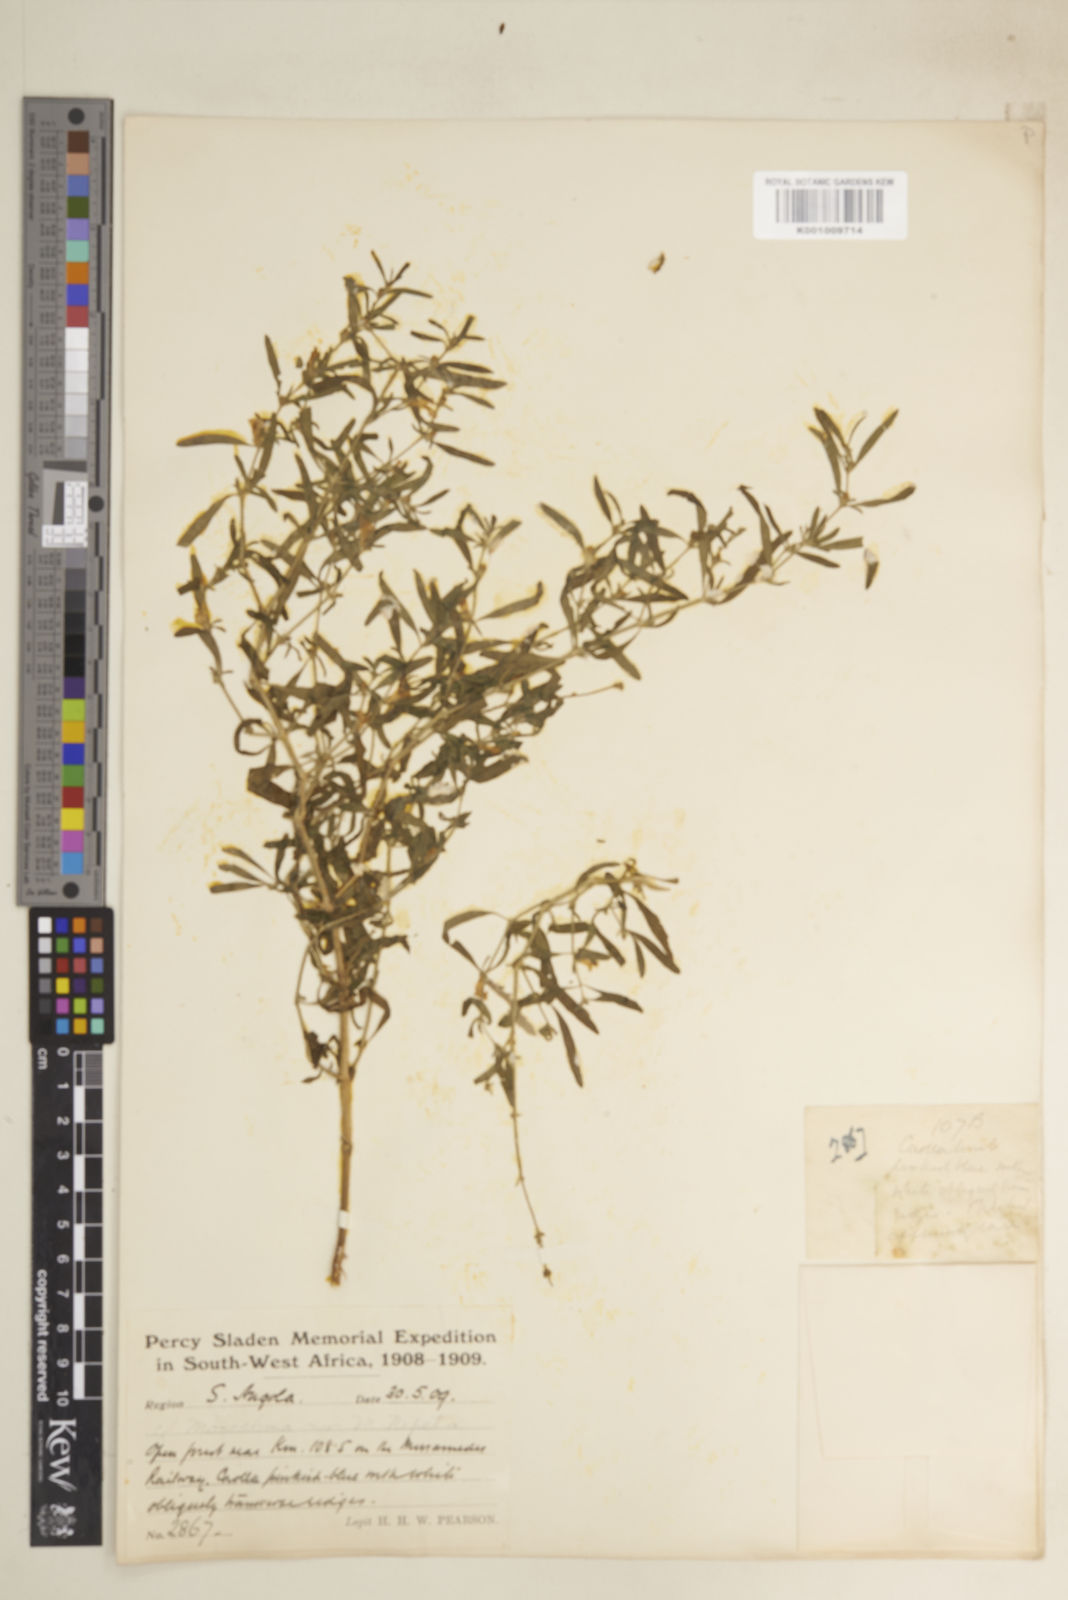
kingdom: Plantae
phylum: Tracheophyta
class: Magnoliopsida
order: Lamiales
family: Acanthaceae
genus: Pogonospermum
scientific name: Pogonospermum
